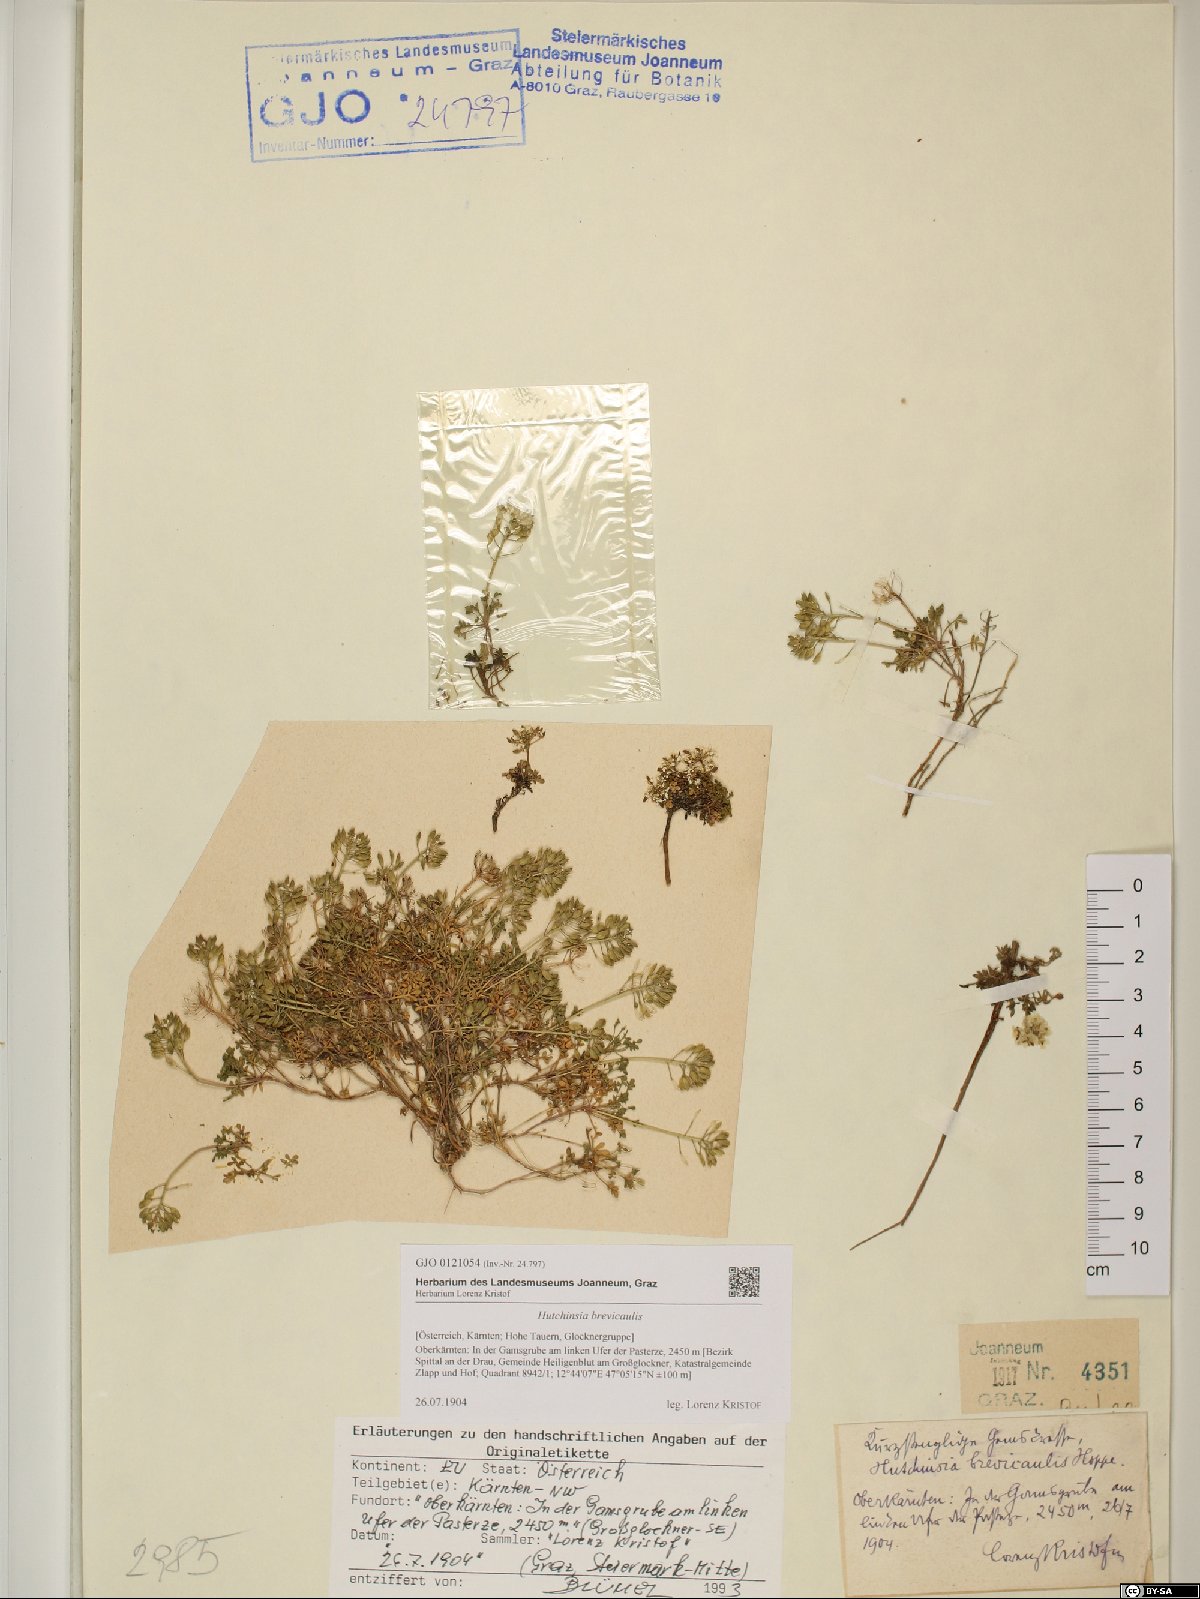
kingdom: Plantae
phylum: Tracheophyta
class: Magnoliopsida
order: Brassicales
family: Brassicaceae
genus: Hornungia
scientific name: Hornungia alpina
